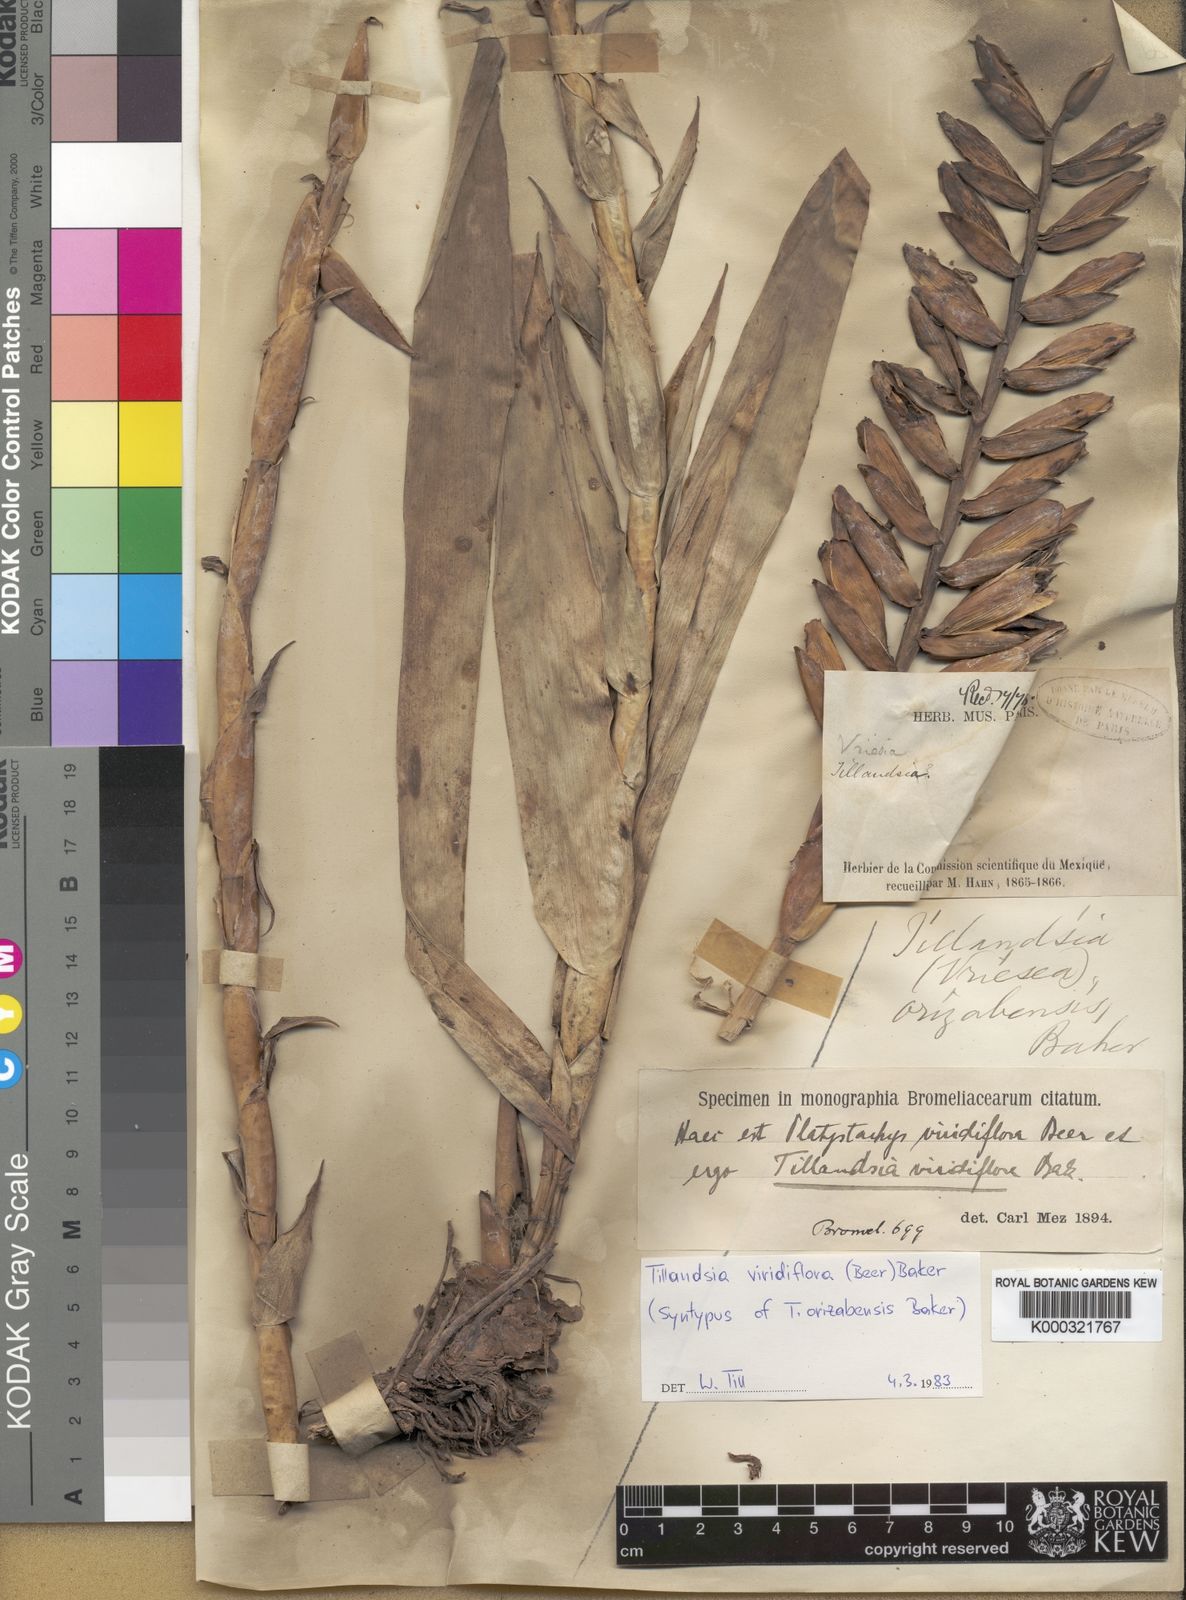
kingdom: Plantae
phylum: Tracheophyta
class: Liliopsida
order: Poales
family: Bromeliaceae
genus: Pseudalcantarea
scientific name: Pseudalcantarea viridiflora
